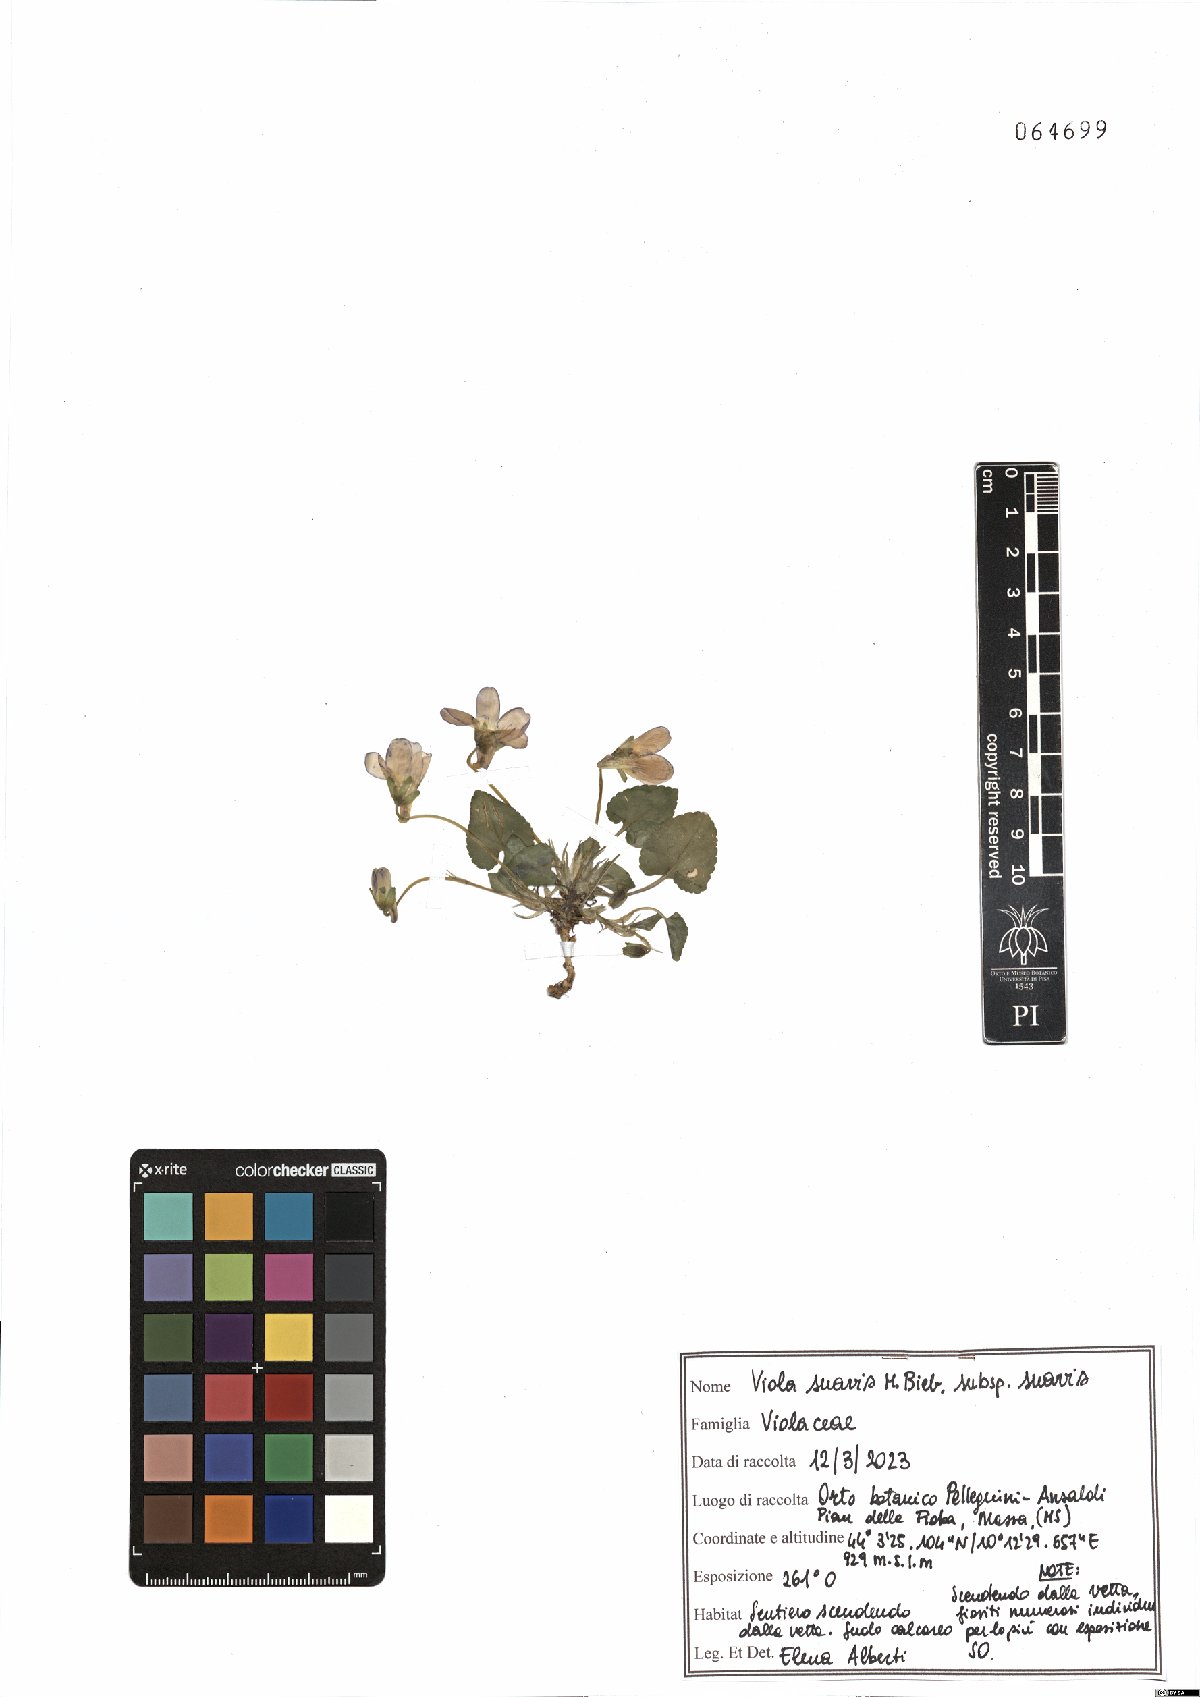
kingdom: Plantae
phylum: Tracheophyta
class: Magnoliopsida
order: Malpighiales
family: Violaceae
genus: Viola
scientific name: Viola suavis
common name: Russian violet
